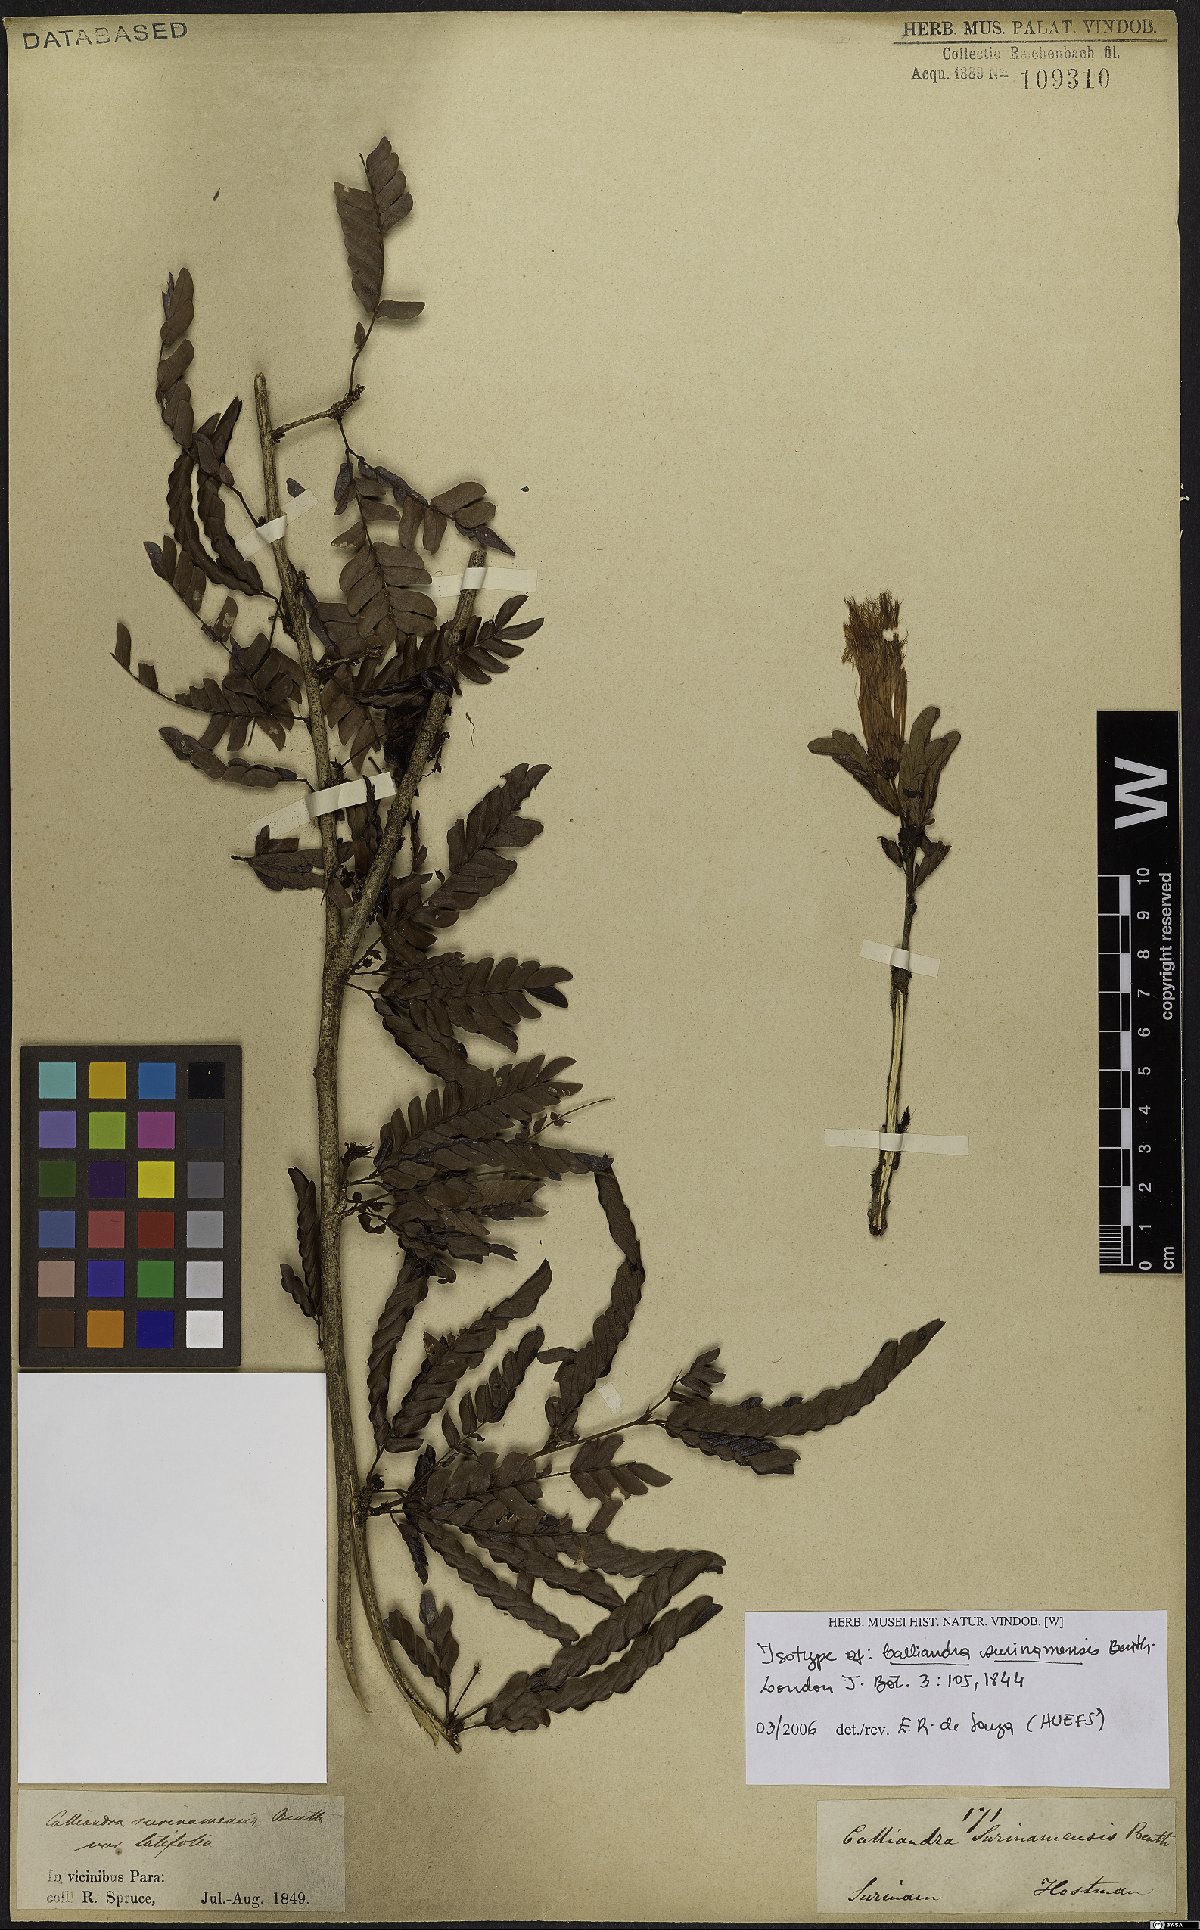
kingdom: Plantae
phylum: Tracheophyta
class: Magnoliopsida
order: Fabales
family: Fabaceae
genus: Calliandra
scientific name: Calliandra surinamensis
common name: Pink powder puff
